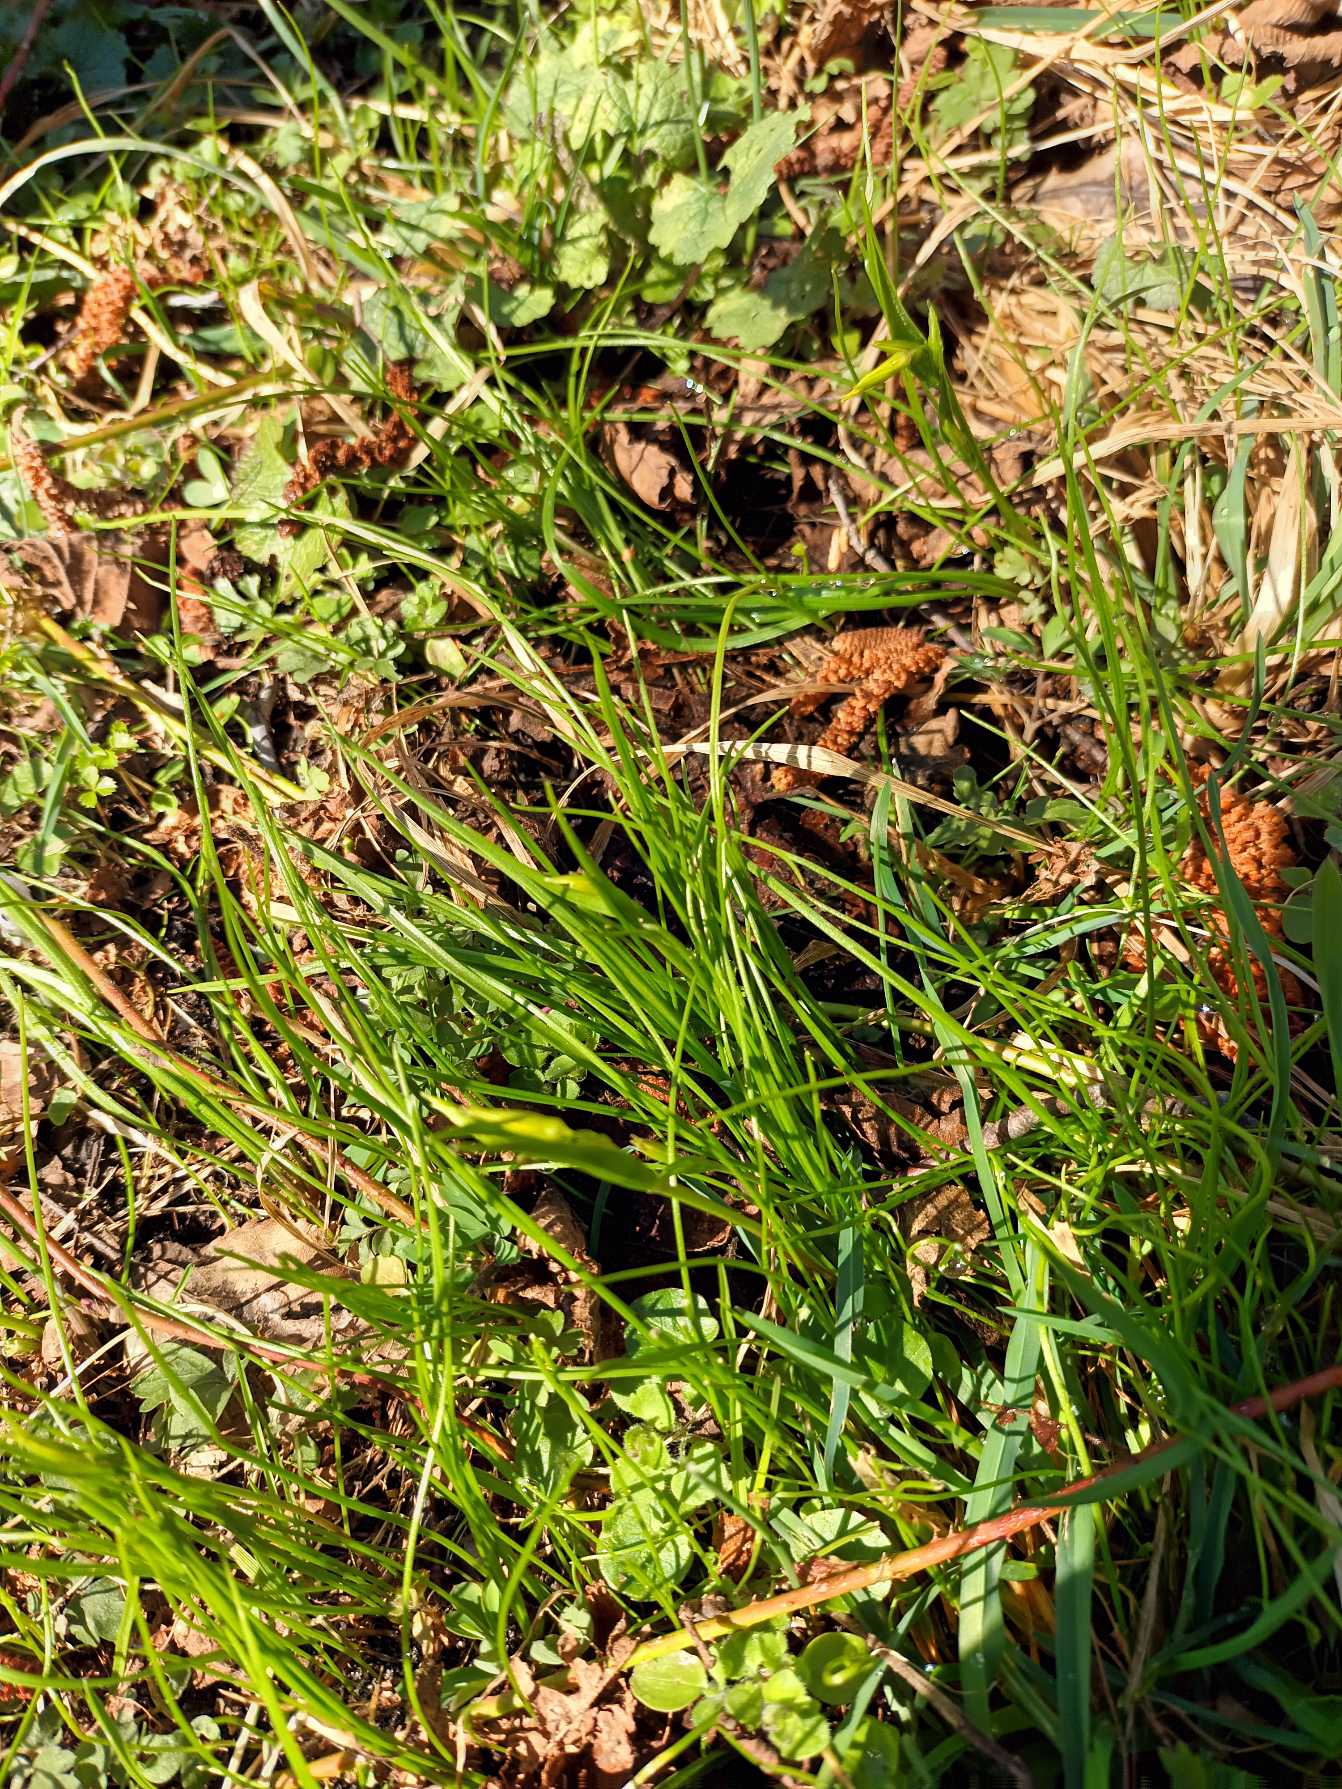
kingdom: Plantae
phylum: Tracheophyta
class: Liliopsida
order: Liliales
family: Liliaceae
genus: Gagea
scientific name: Gagea minima
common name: Liden guldstjerne
